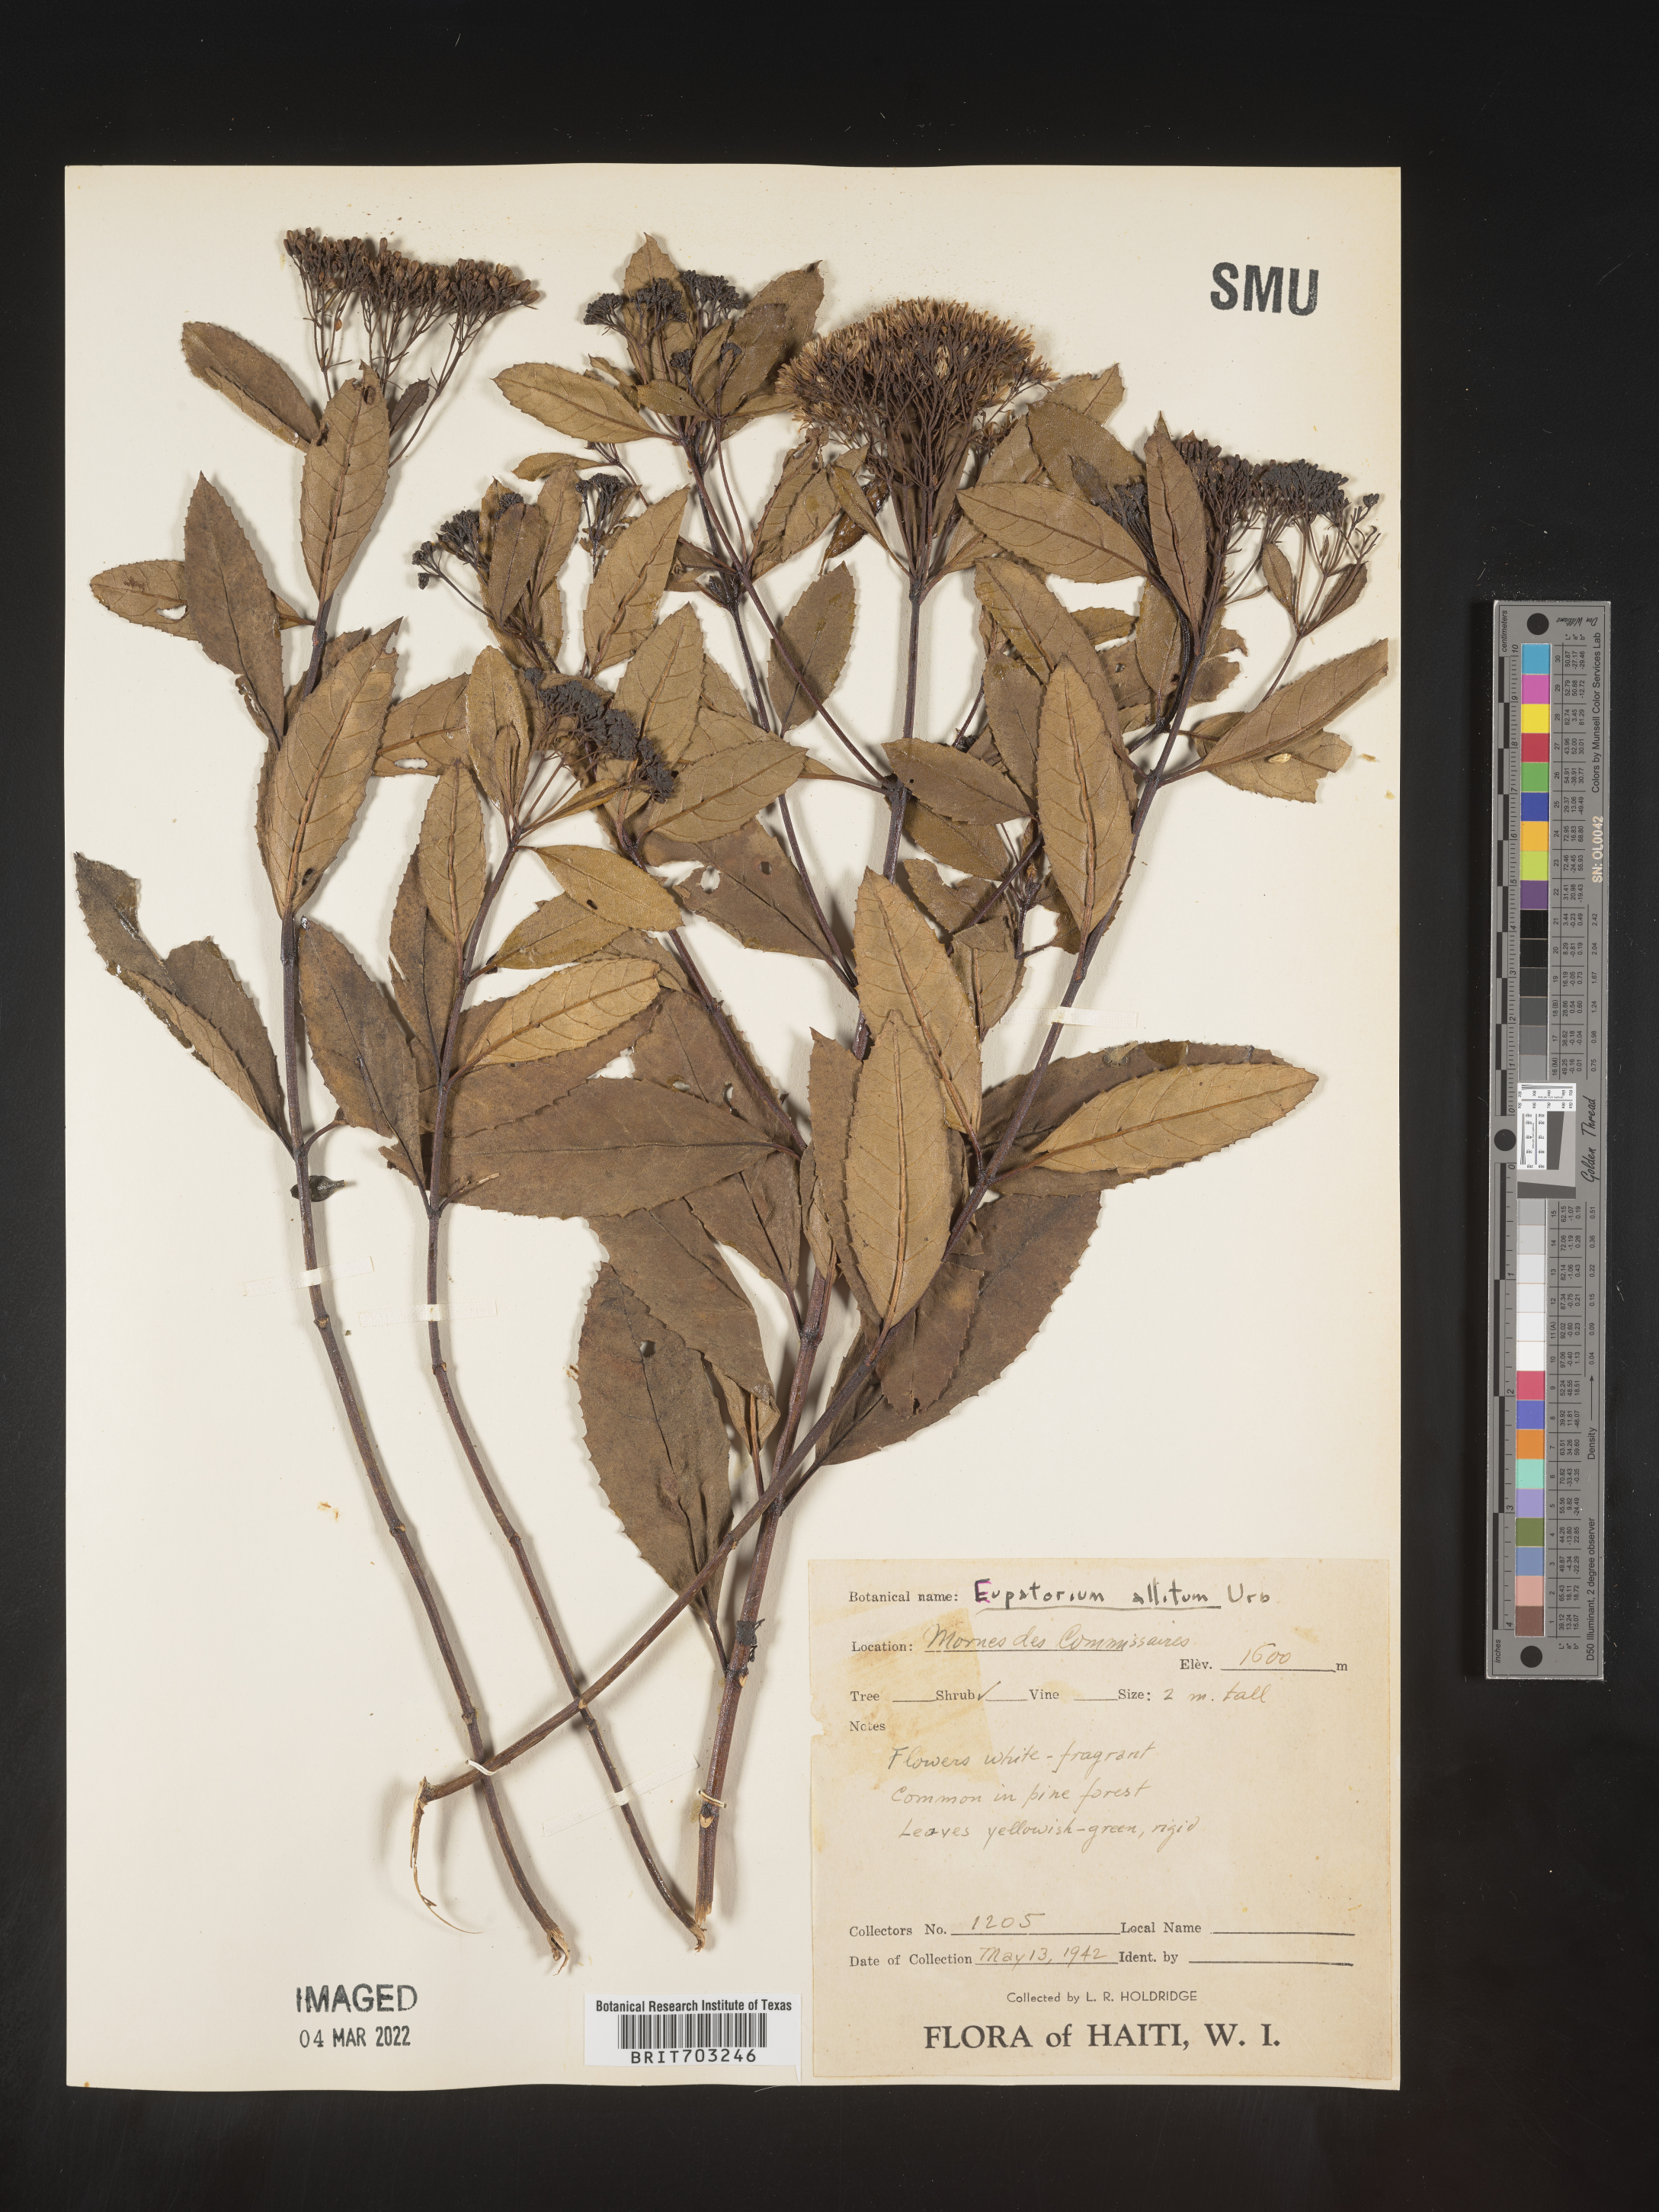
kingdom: Plantae
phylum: Tracheophyta
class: Magnoliopsida
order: Asterales
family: Asteraceae
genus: Eupatorium
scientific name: Eupatorium
